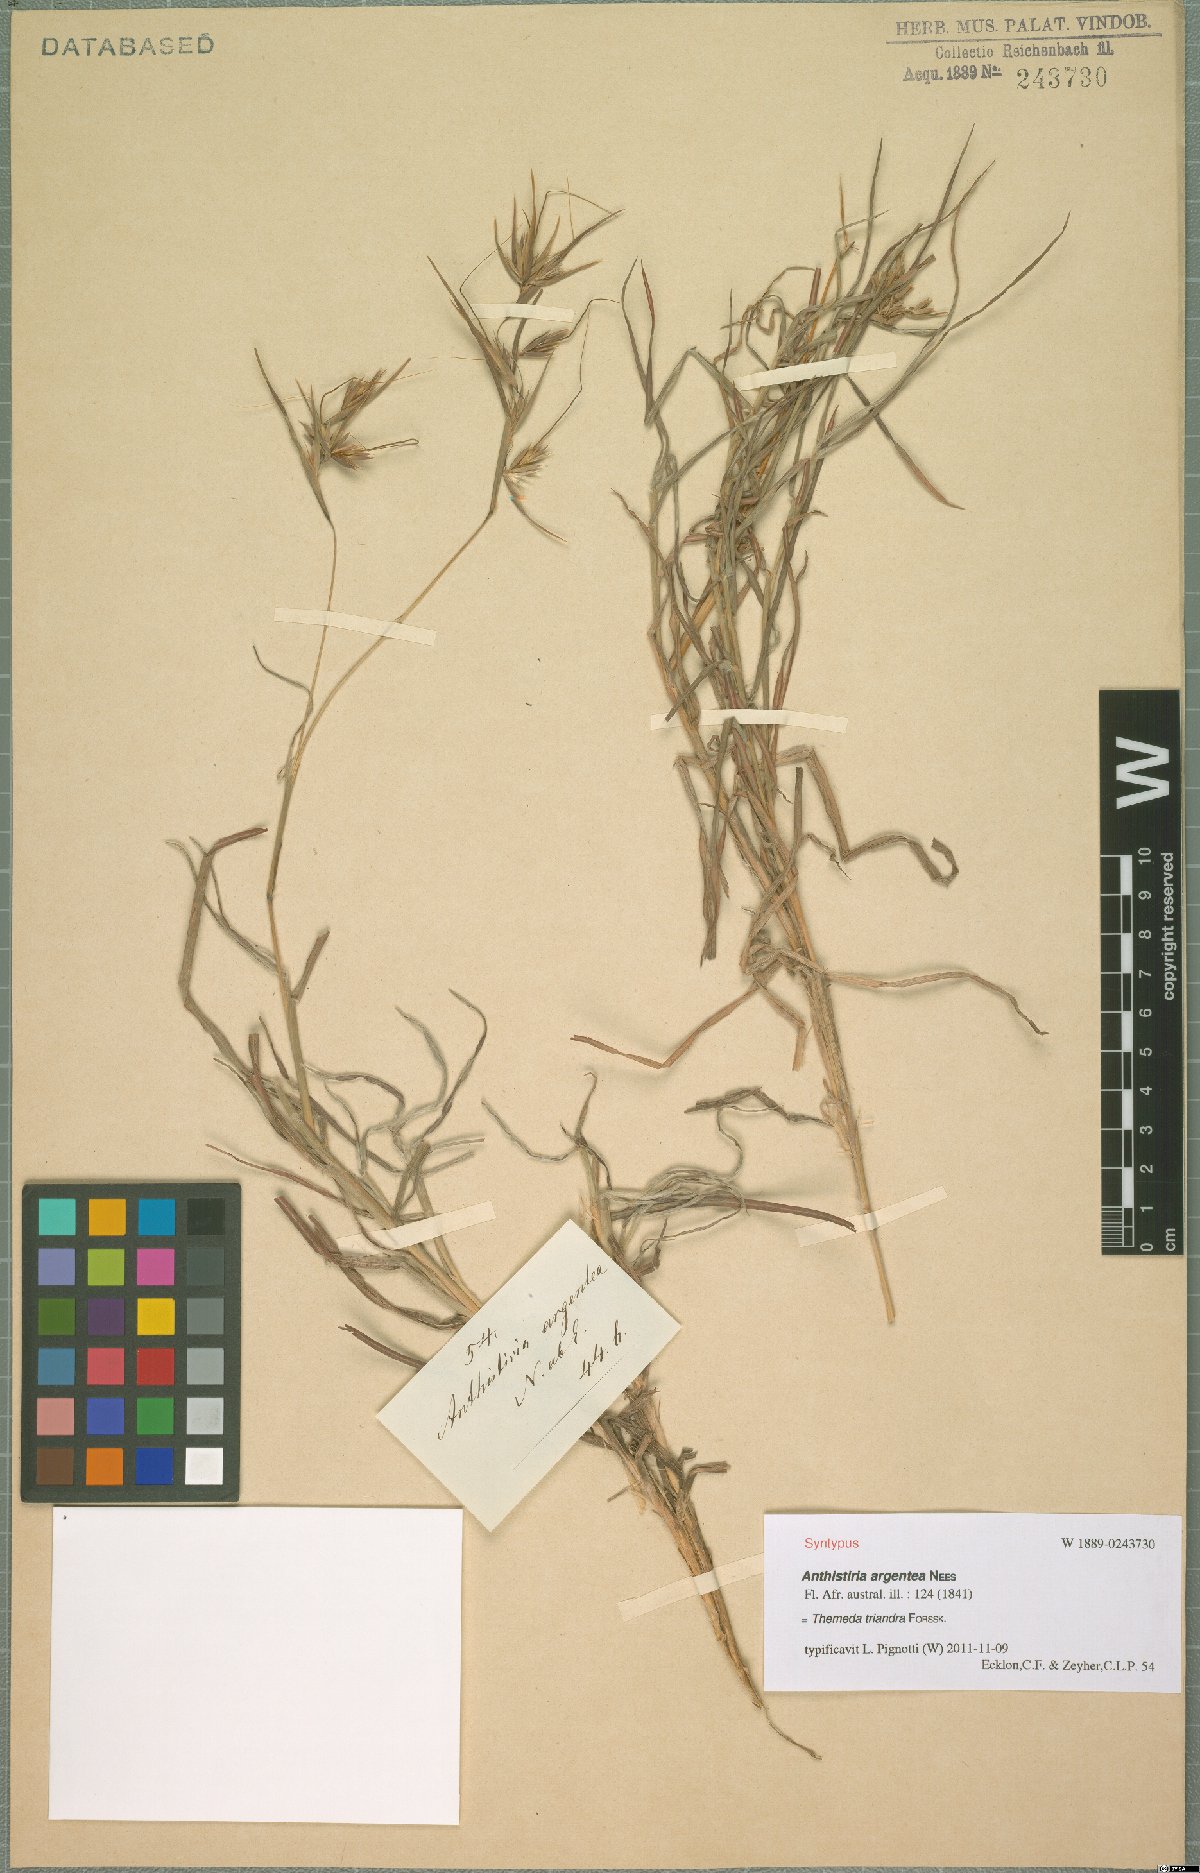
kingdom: Plantae
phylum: Tracheophyta
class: Liliopsida
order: Poales
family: Poaceae
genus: Themeda
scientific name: Themeda triandra
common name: Kangaroo grass
